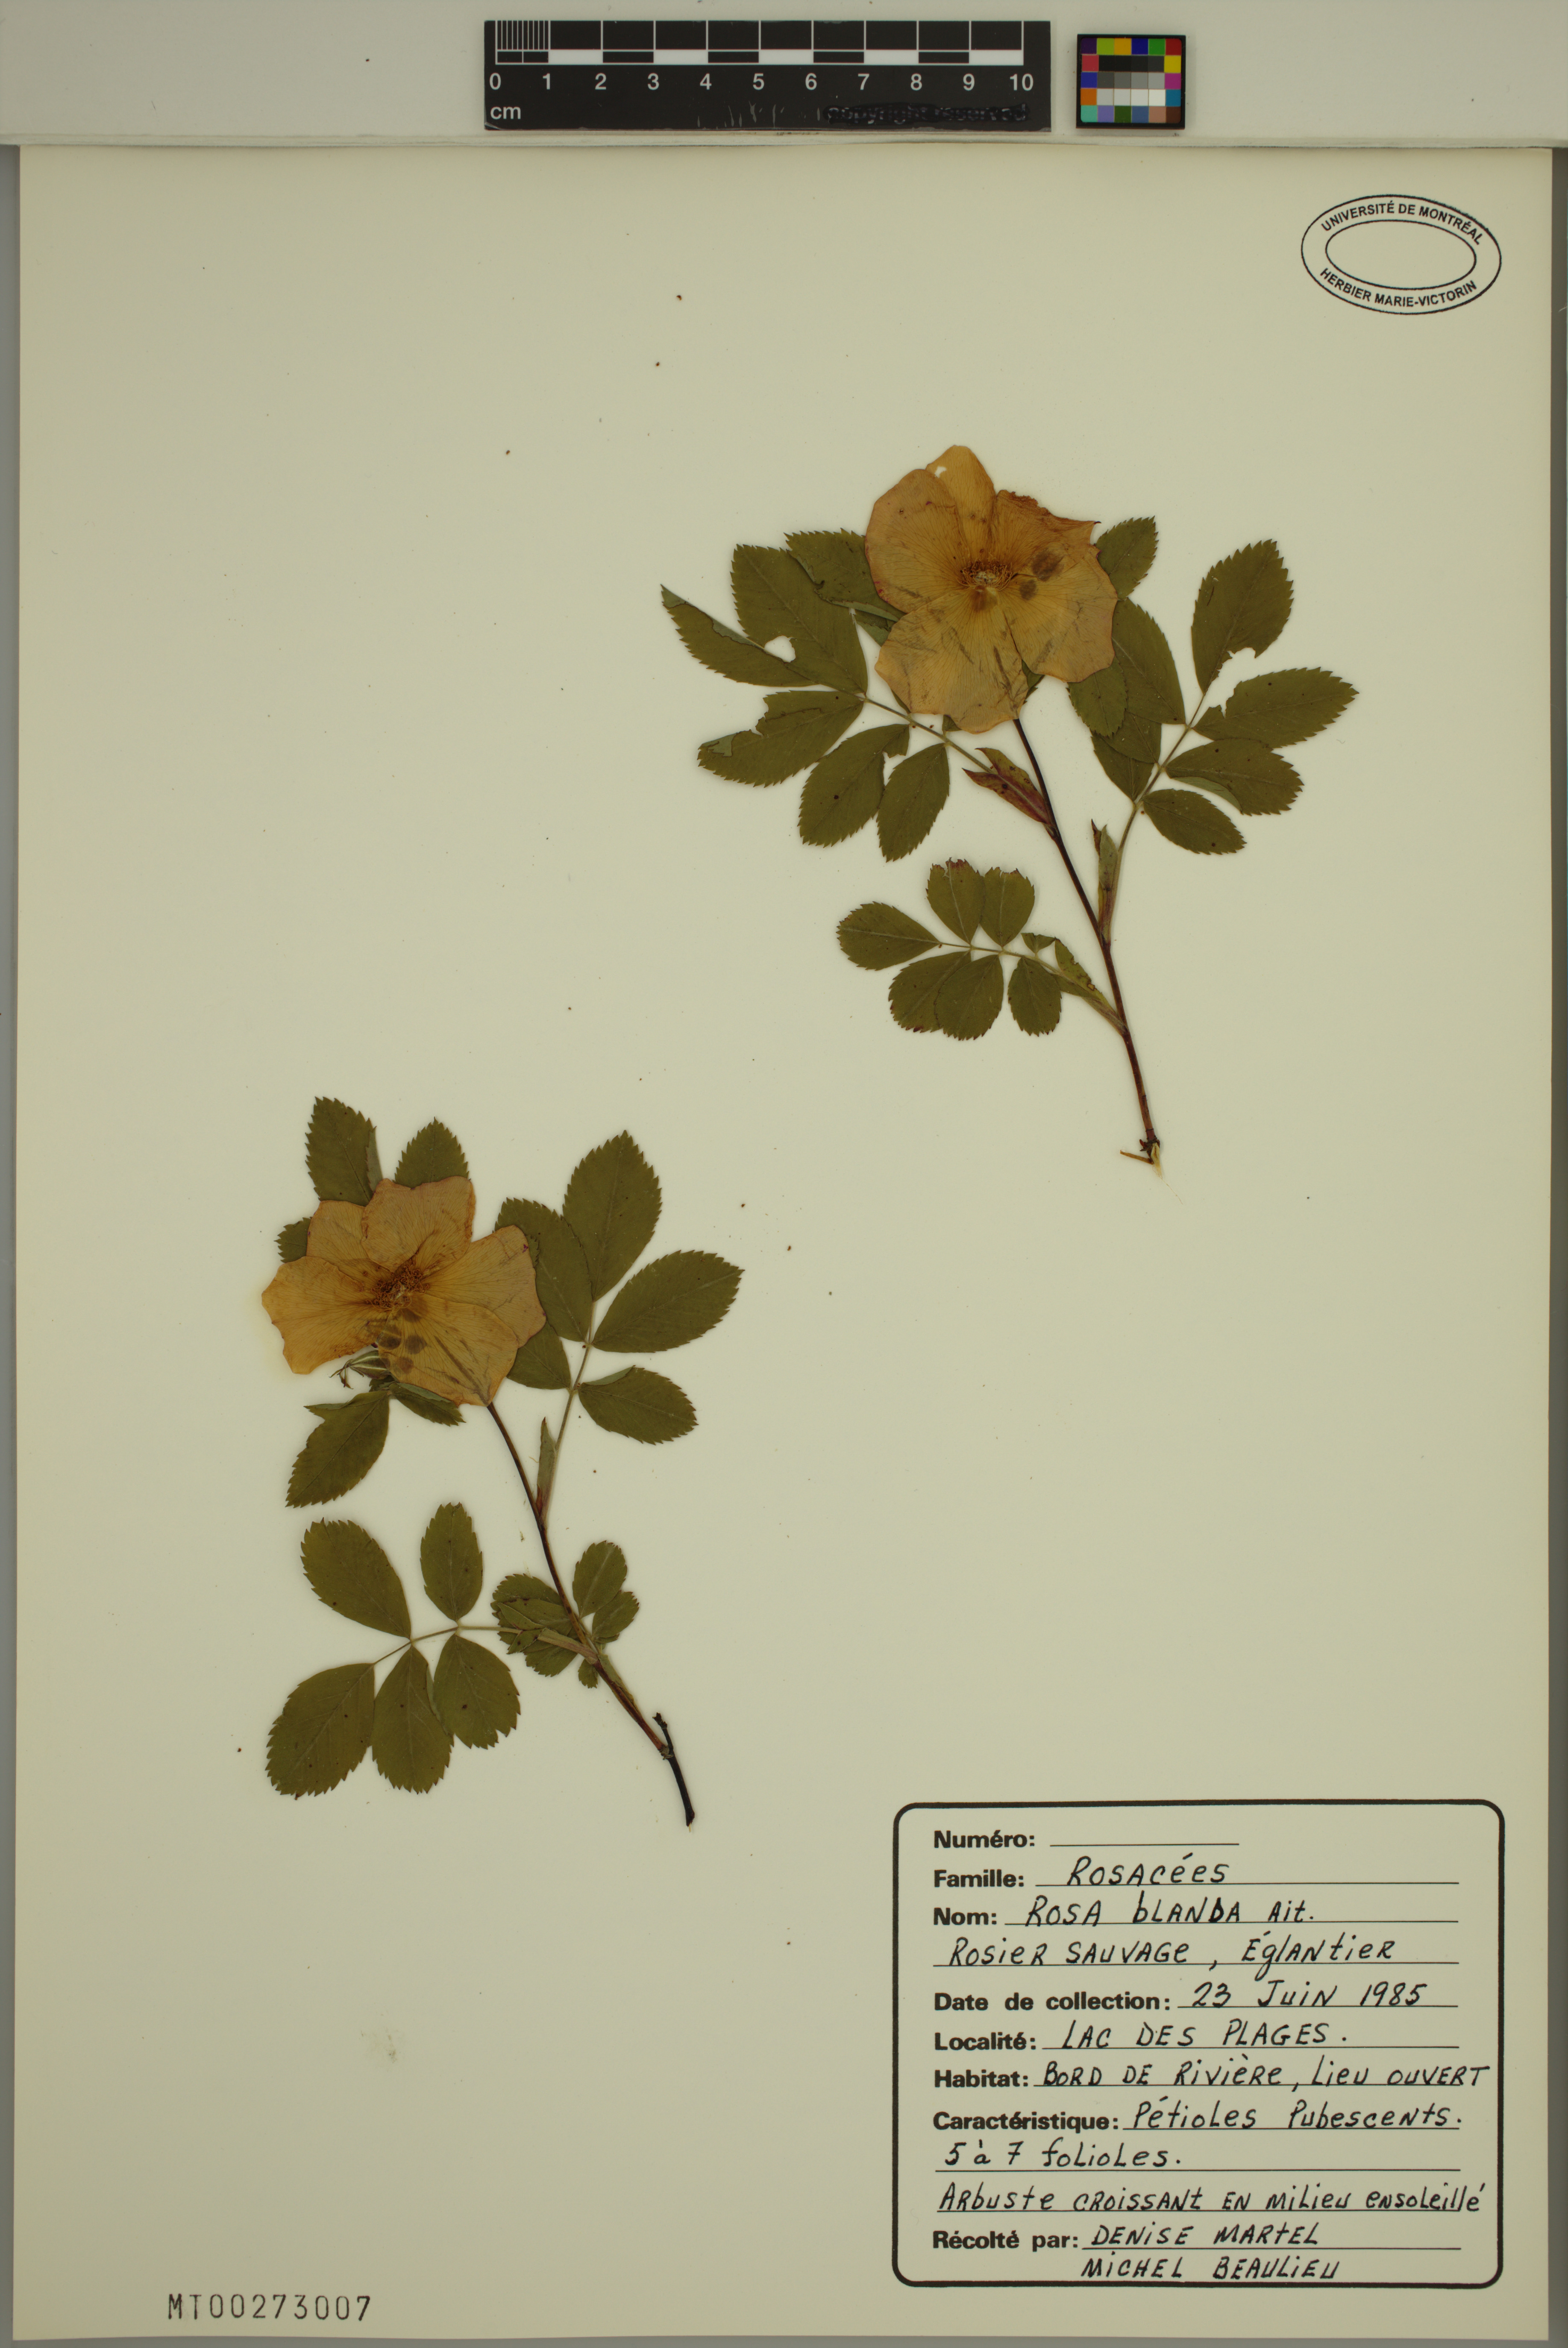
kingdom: Plantae
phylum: Tracheophyta
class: Magnoliopsida
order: Rosales
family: Rosaceae
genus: Rosa
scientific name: Rosa blanda
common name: Smooth rose
